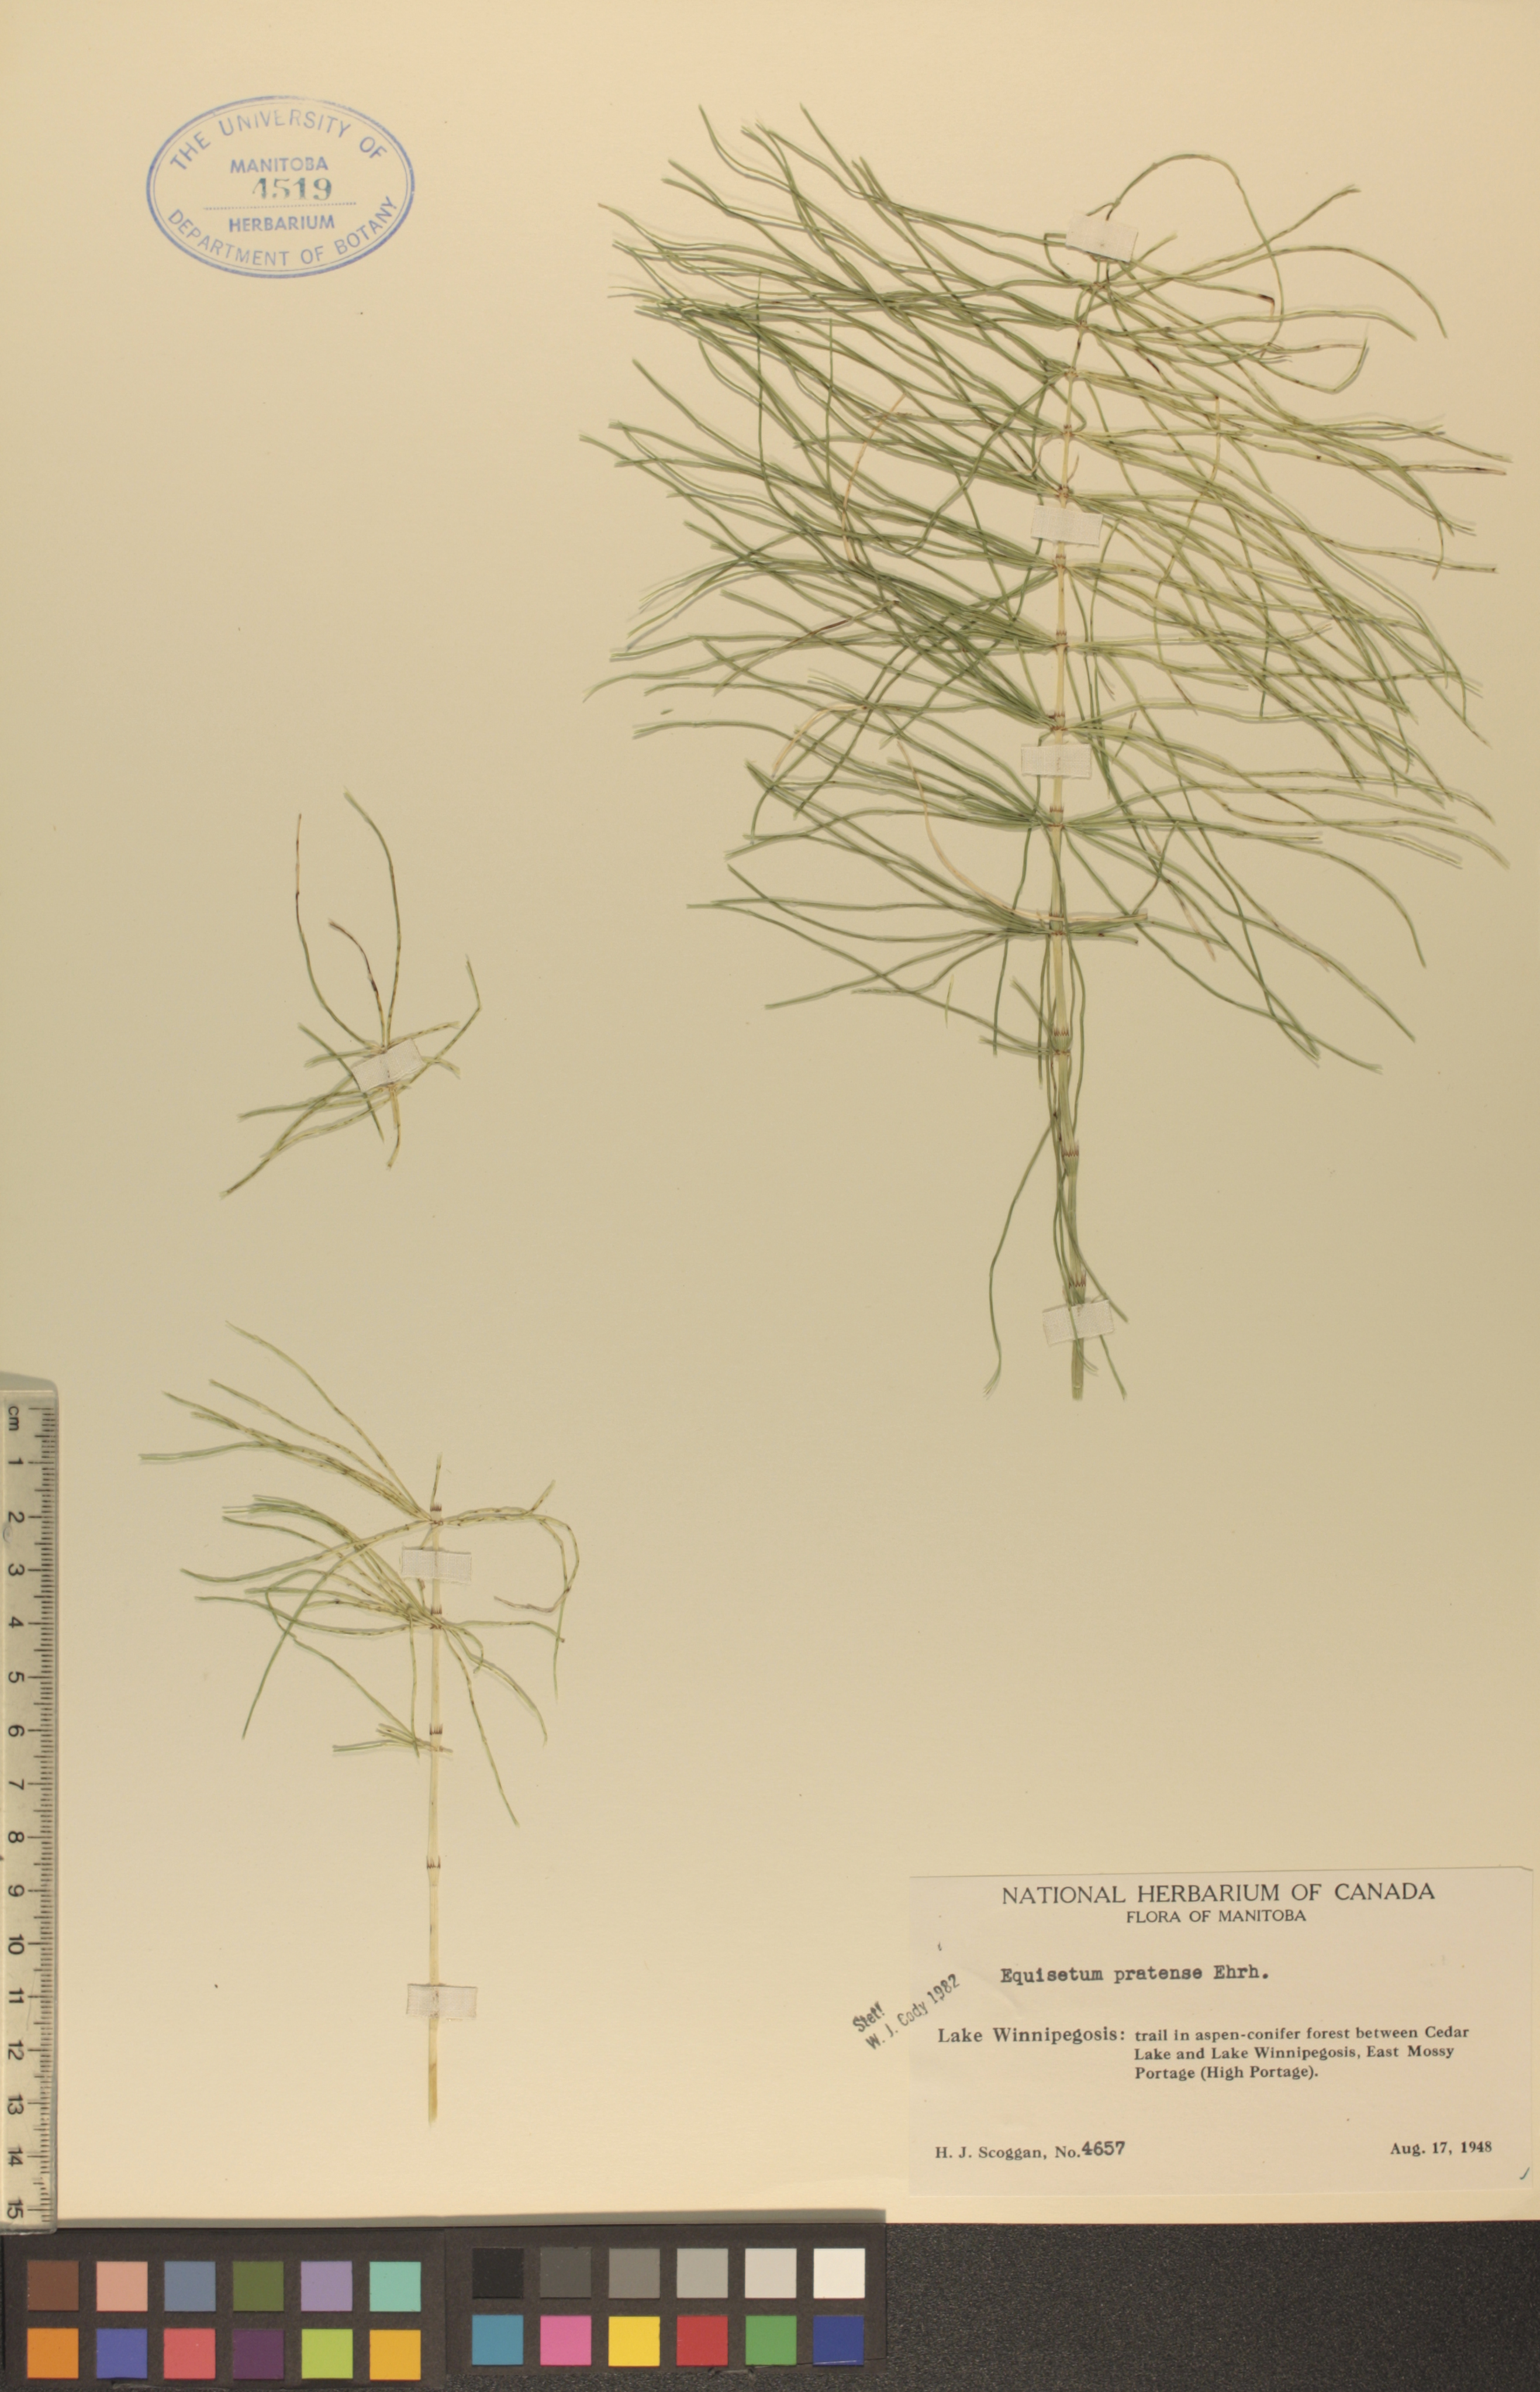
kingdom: Plantae
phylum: Tracheophyta
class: Polypodiopsida
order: Equisetales
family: Equisetaceae
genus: Equisetum
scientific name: Equisetum pratense
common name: Meadow horsetail
